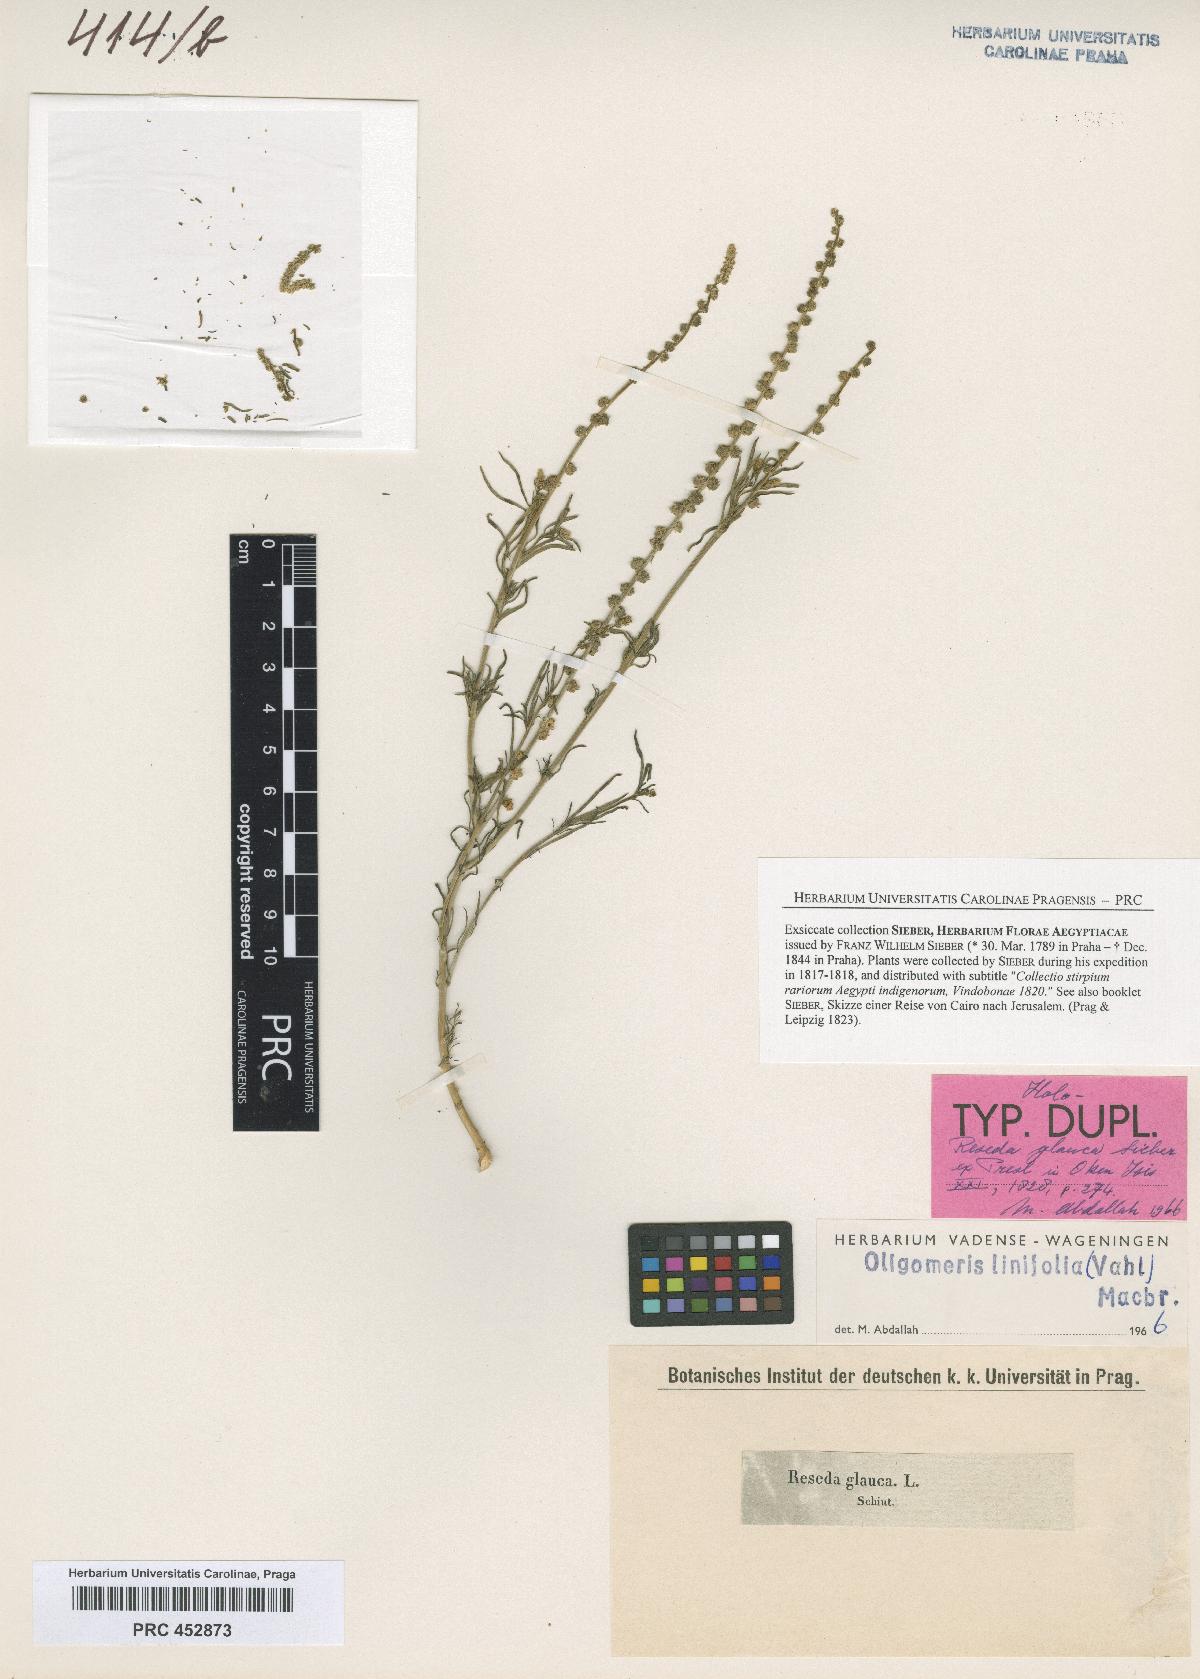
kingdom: Plantae
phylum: Tracheophyta
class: Magnoliopsida
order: Brassicales
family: Resedaceae
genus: Oligomeris
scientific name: Oligomeris dipetala
